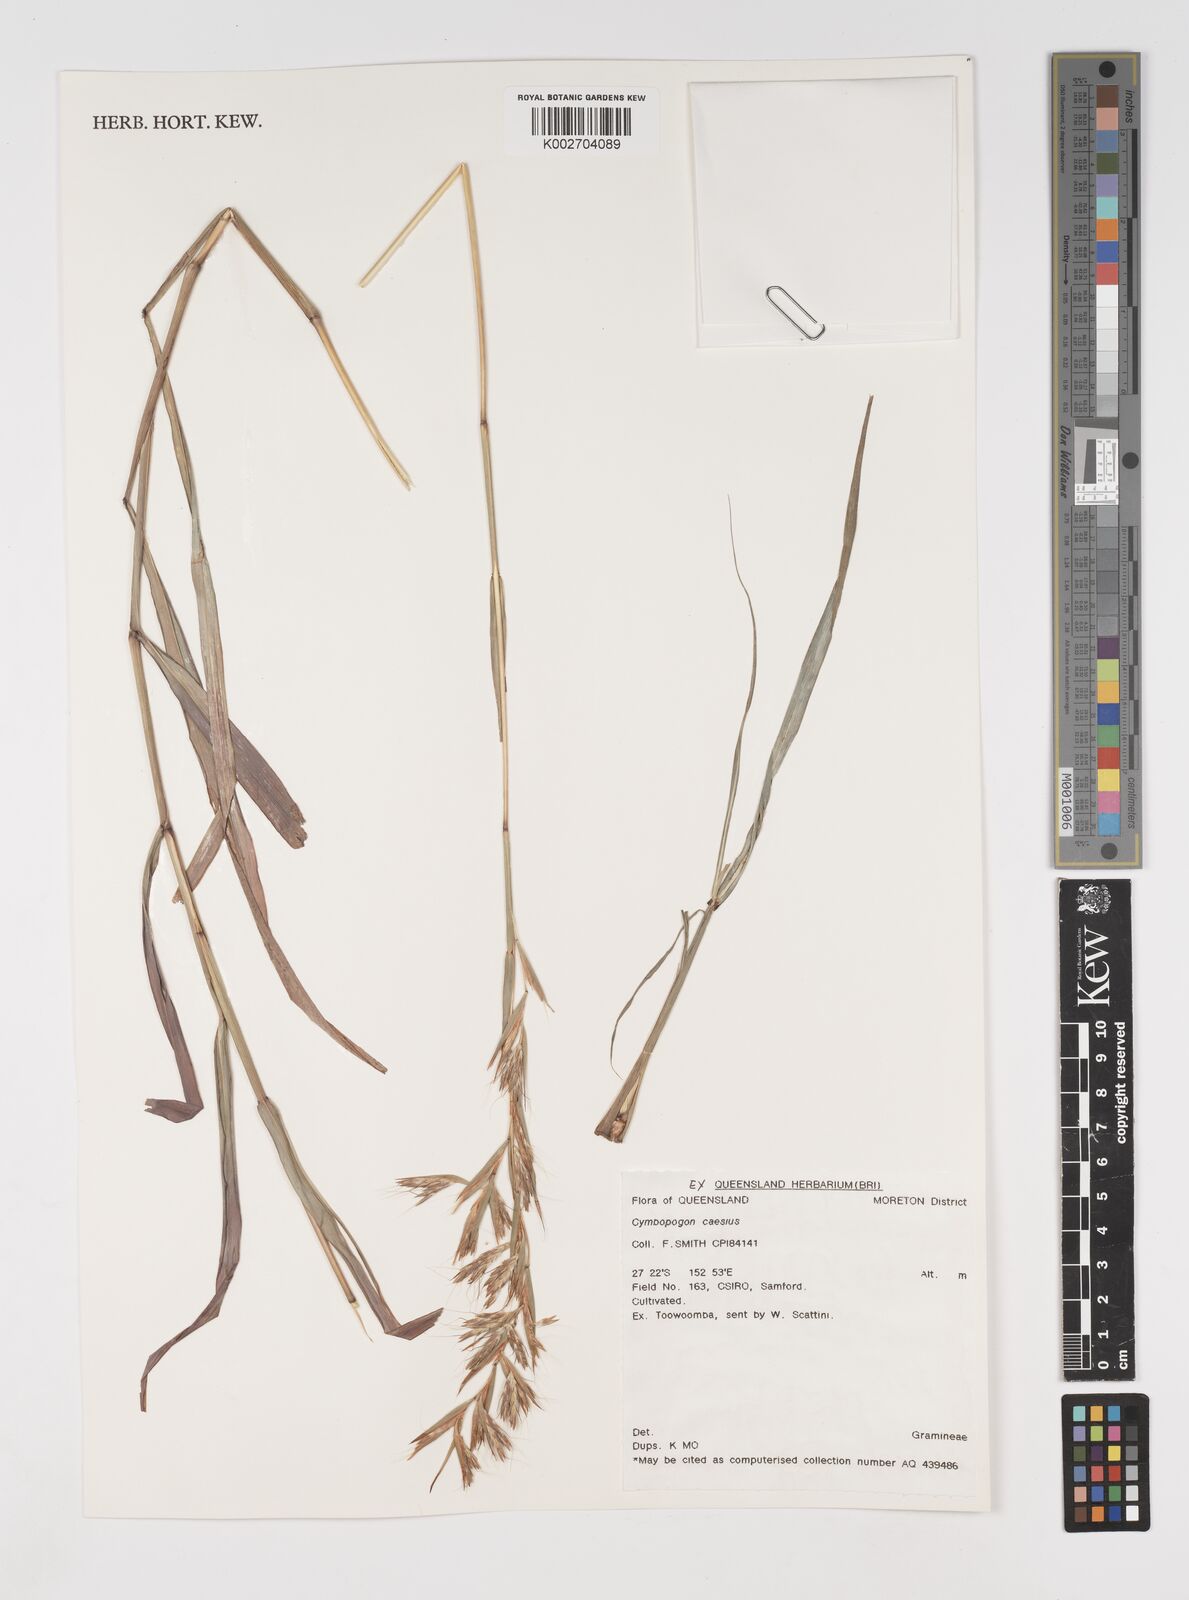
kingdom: Plantae
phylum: Tracheophyta
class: Liliopsida
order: Poales
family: Poaceae
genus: Cymbopogon
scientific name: Cymbopogon caesius
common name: Kachi grass
